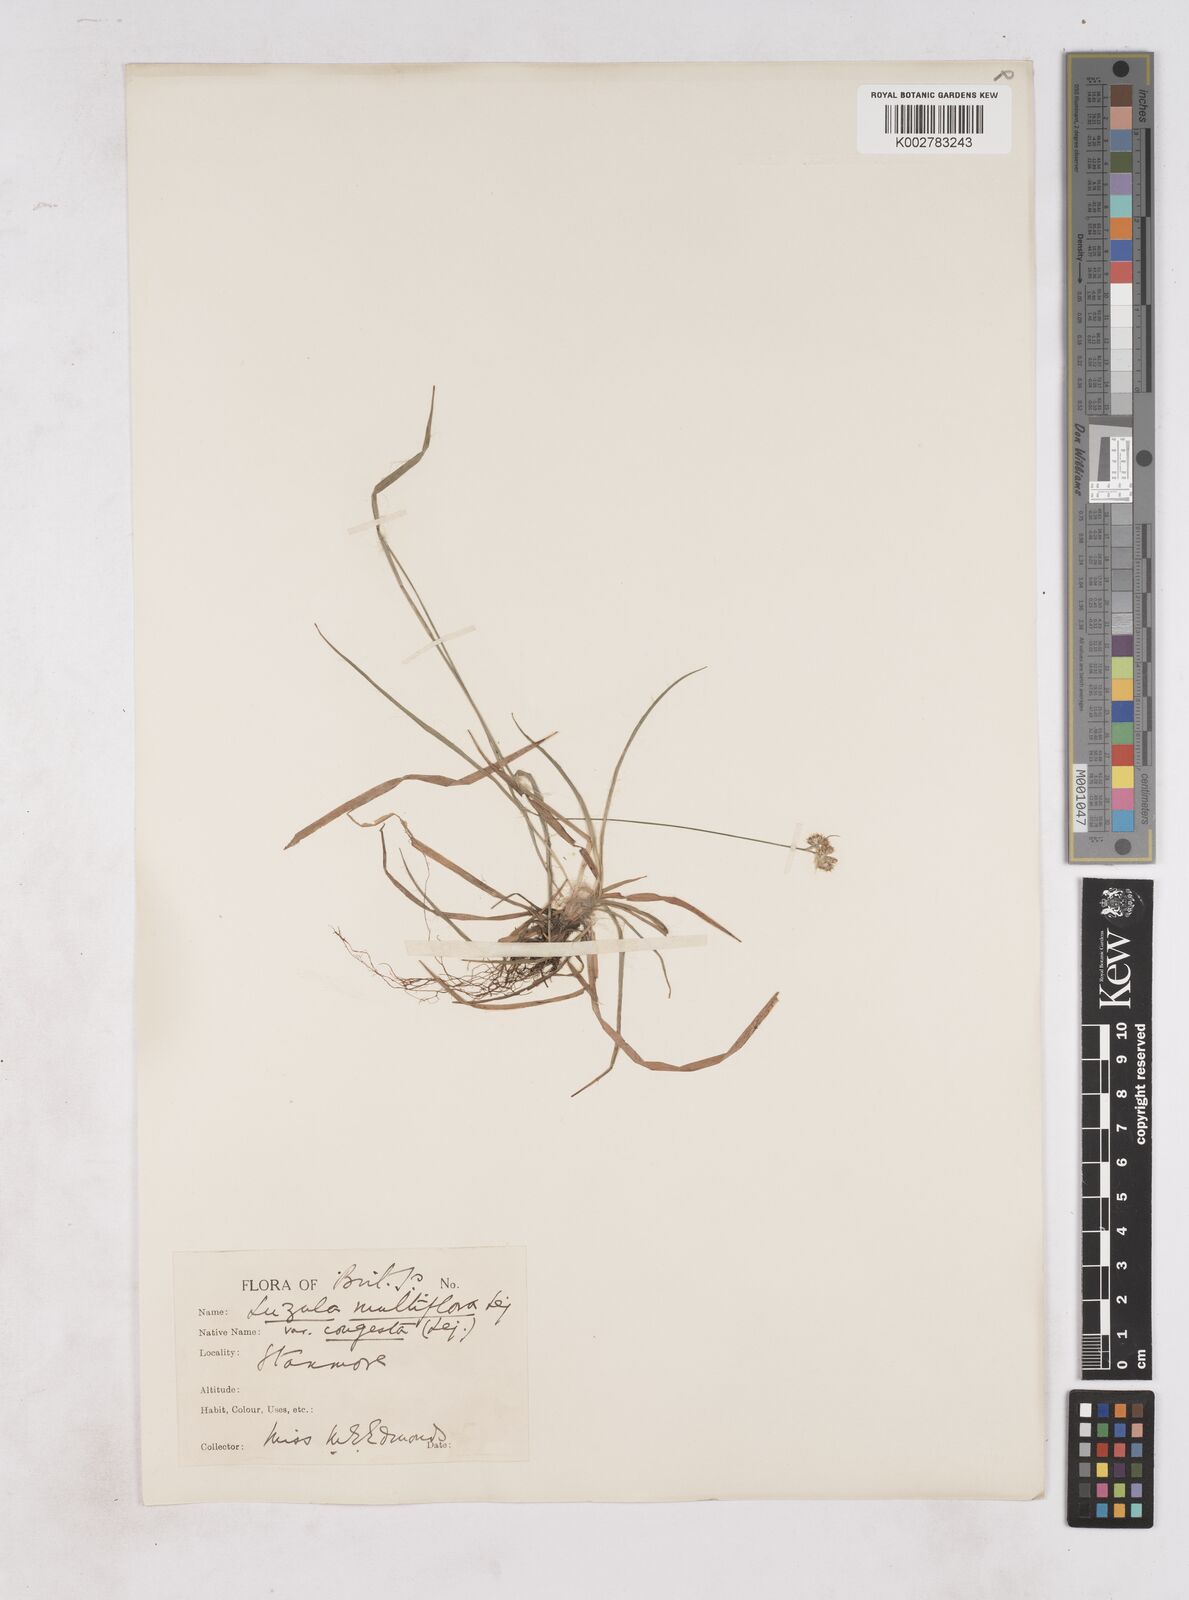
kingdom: Plantae
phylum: Tracheophyta
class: Liliopsida
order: Poales
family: Juncaceae
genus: Luzula
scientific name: Luzula multiflora
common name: Heath wood-rush
